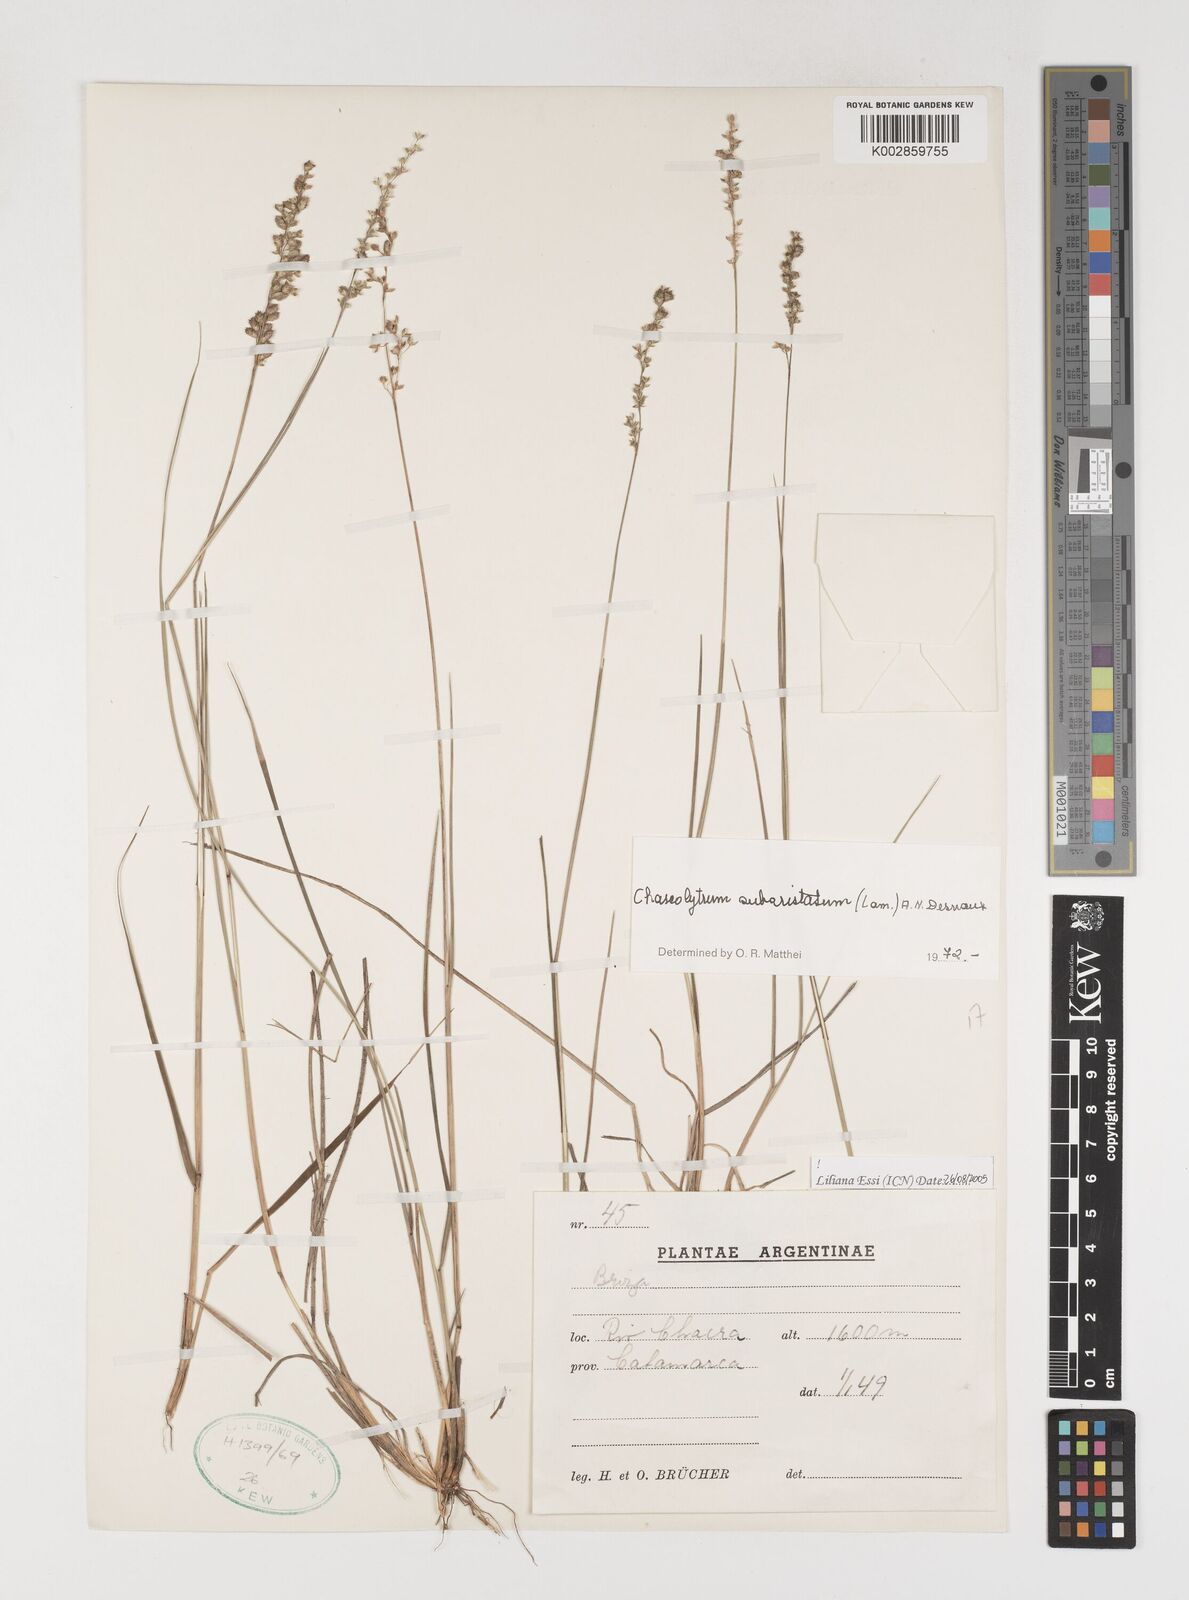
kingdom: Plantae
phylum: Tracheophyta
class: Liliopsida
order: Poales
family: Poaceae
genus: Chascolytrum
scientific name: Chascolytrum subaristatum
